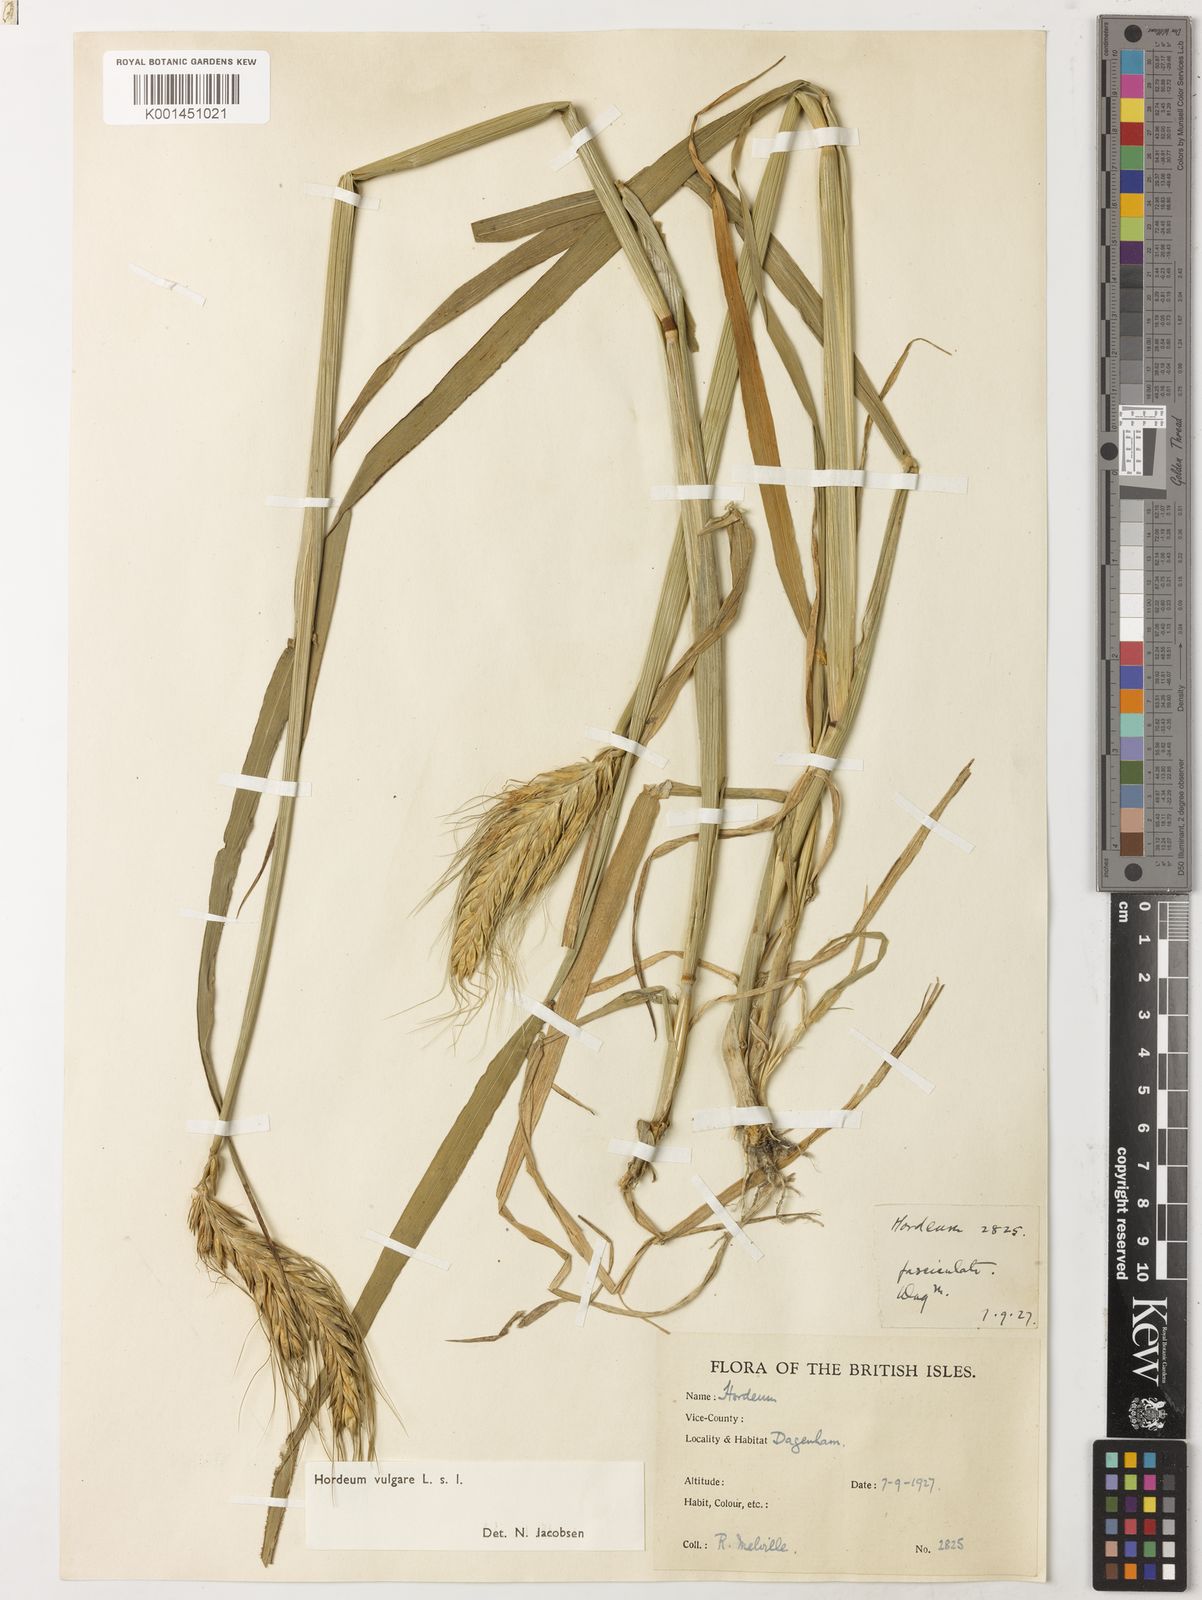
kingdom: Plantae
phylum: Tracheophyta
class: Liliopsida
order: Poales
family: Poaceae
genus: Hordeum
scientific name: Hordeum vulgare
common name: Common barley
